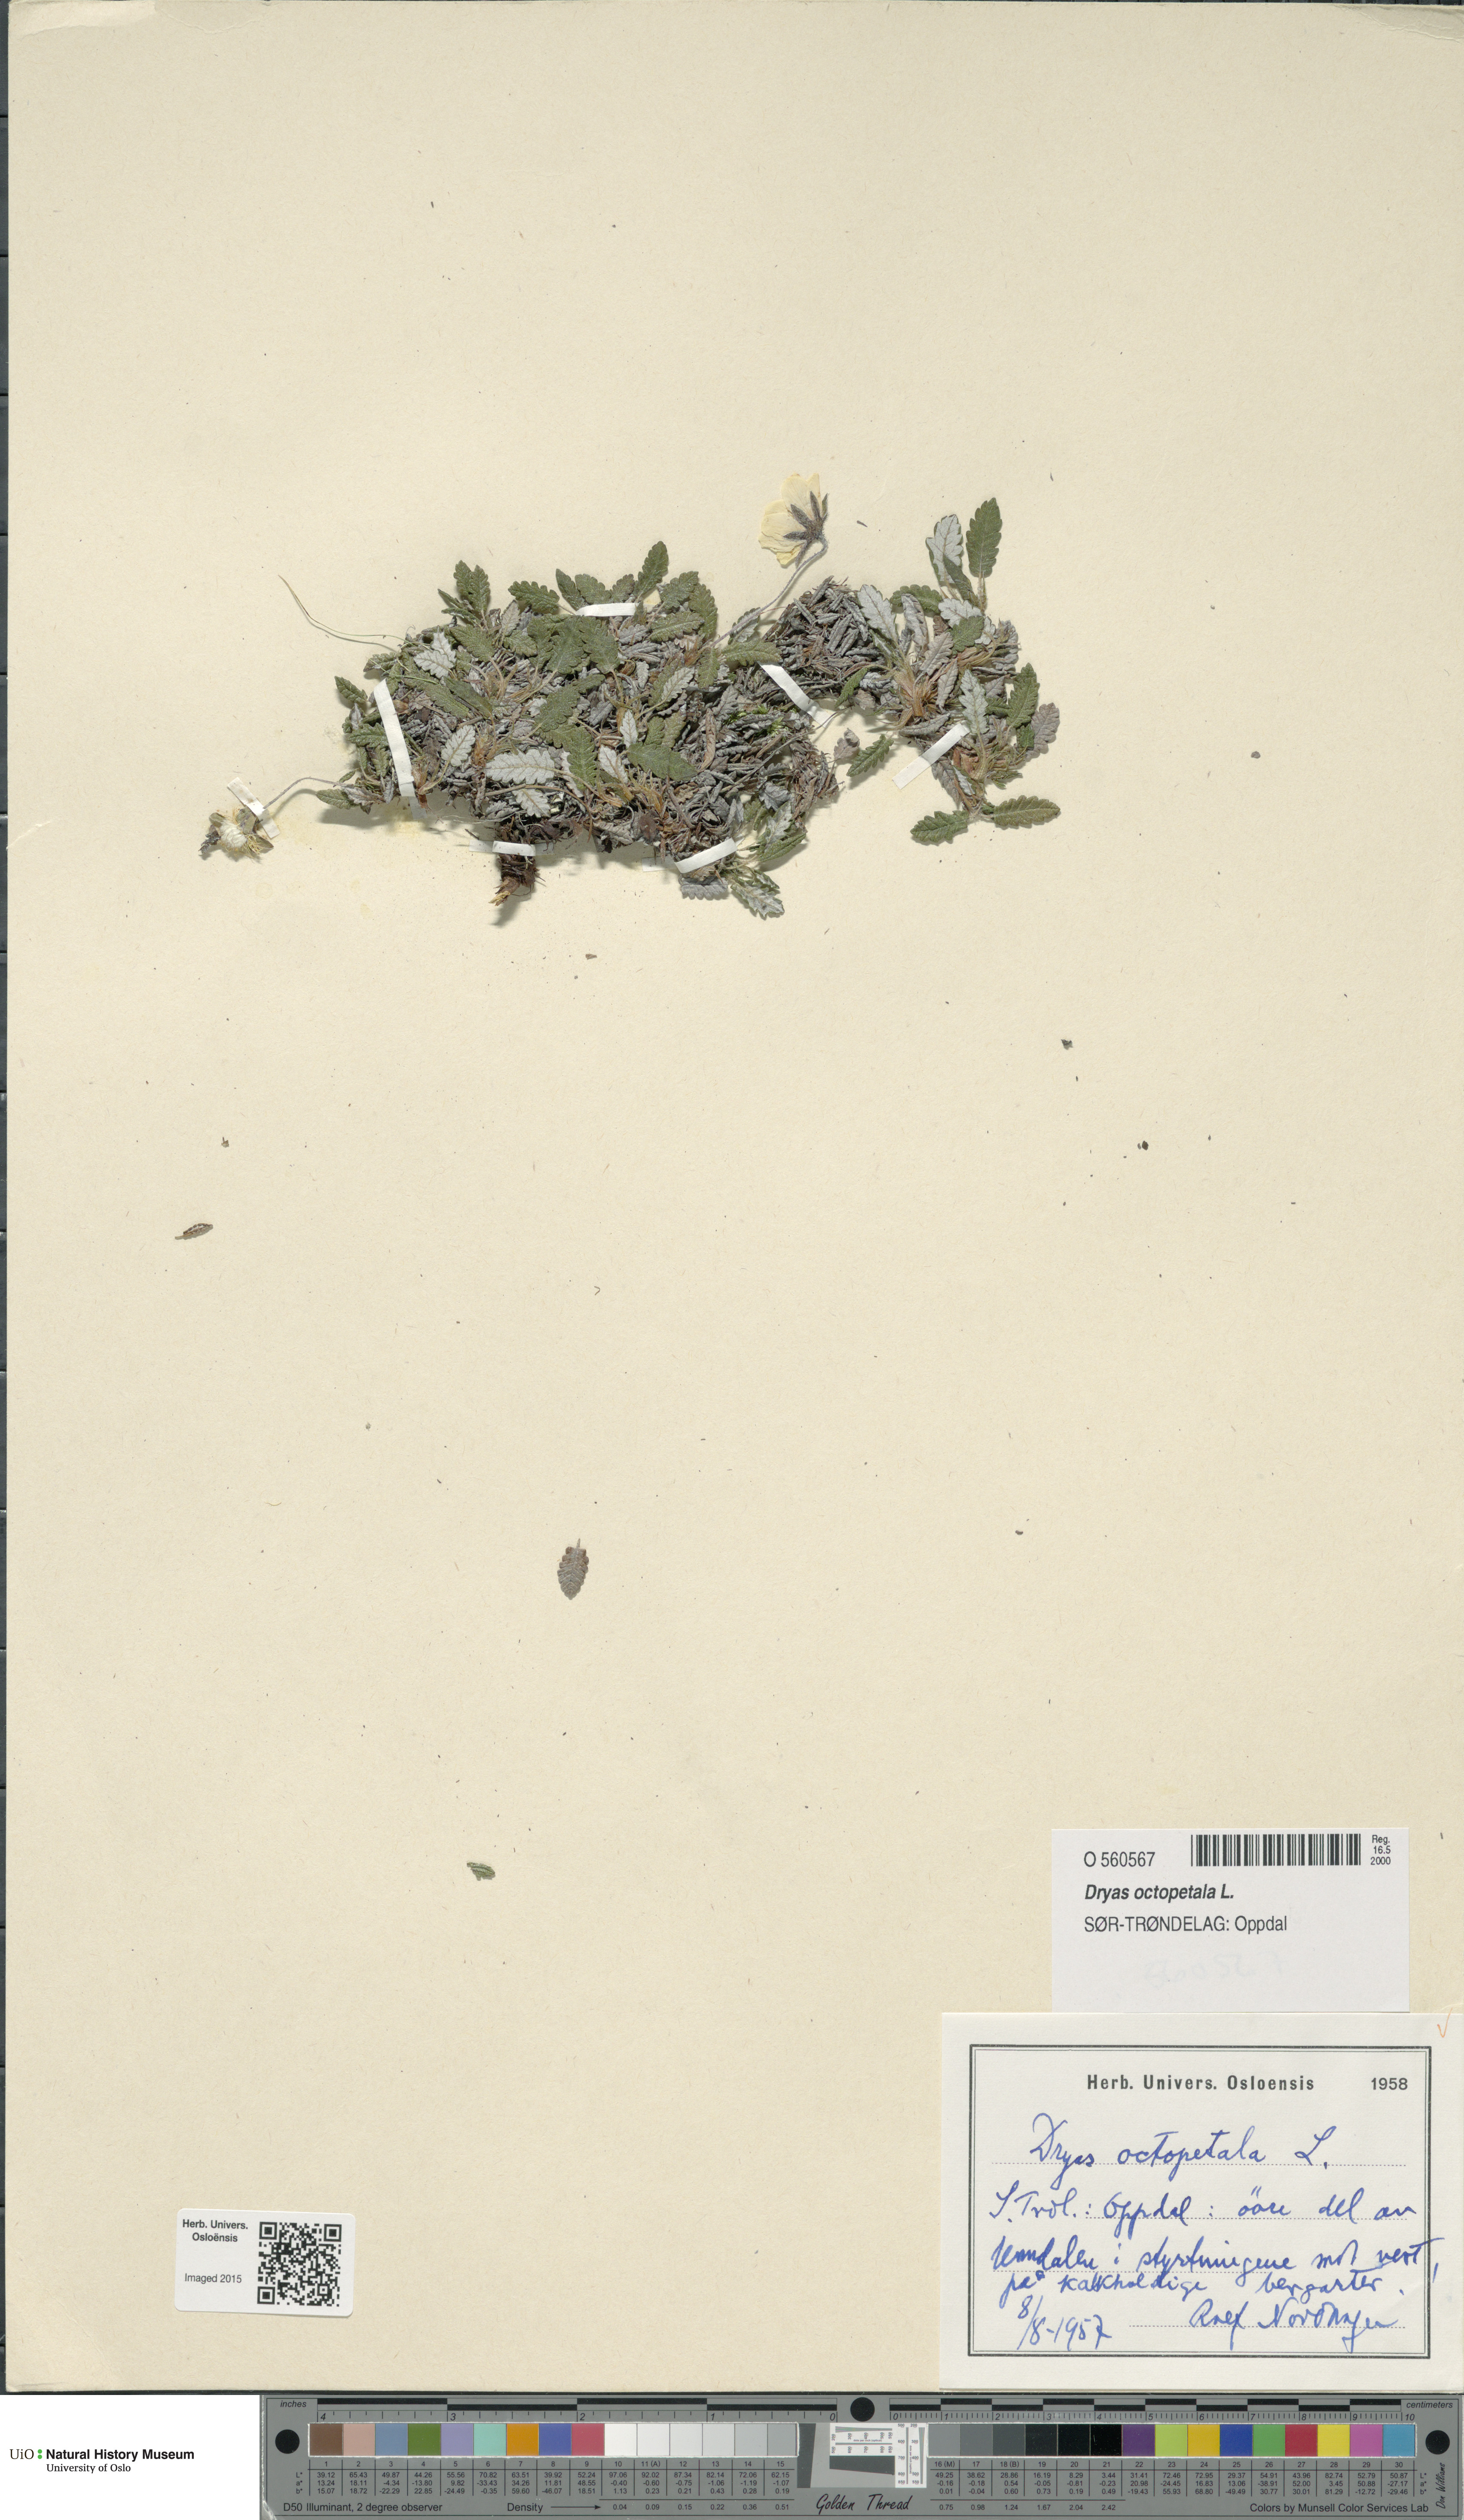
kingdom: Plantae
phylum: Tracheophyta
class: Magnoliopsida
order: Rosales
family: Rosaceae
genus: Dryas
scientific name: Dryas octopetala
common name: Eight-petal mountain-avens
